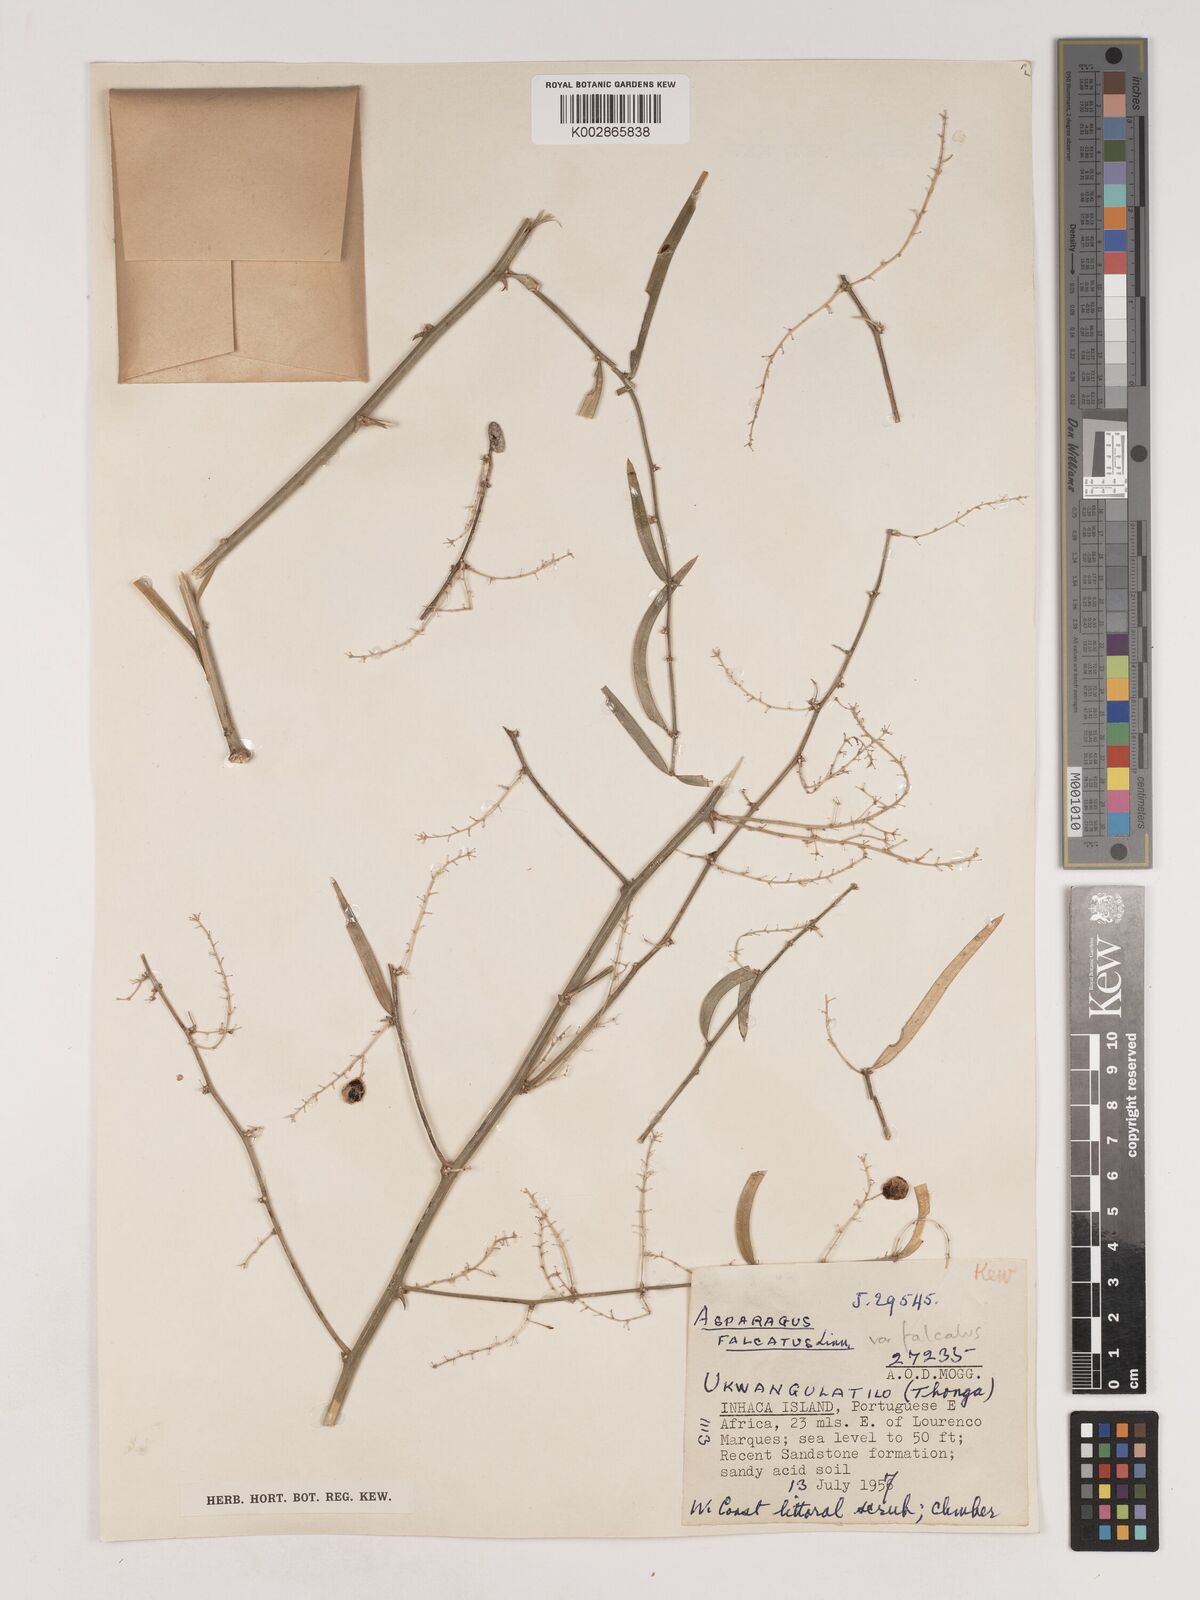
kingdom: Plantae
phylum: Tracheophyta
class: Liliopsida
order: Asparagales
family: Asparagaceae
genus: Asparagus
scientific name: Asparagus falcatus
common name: Asparagus
